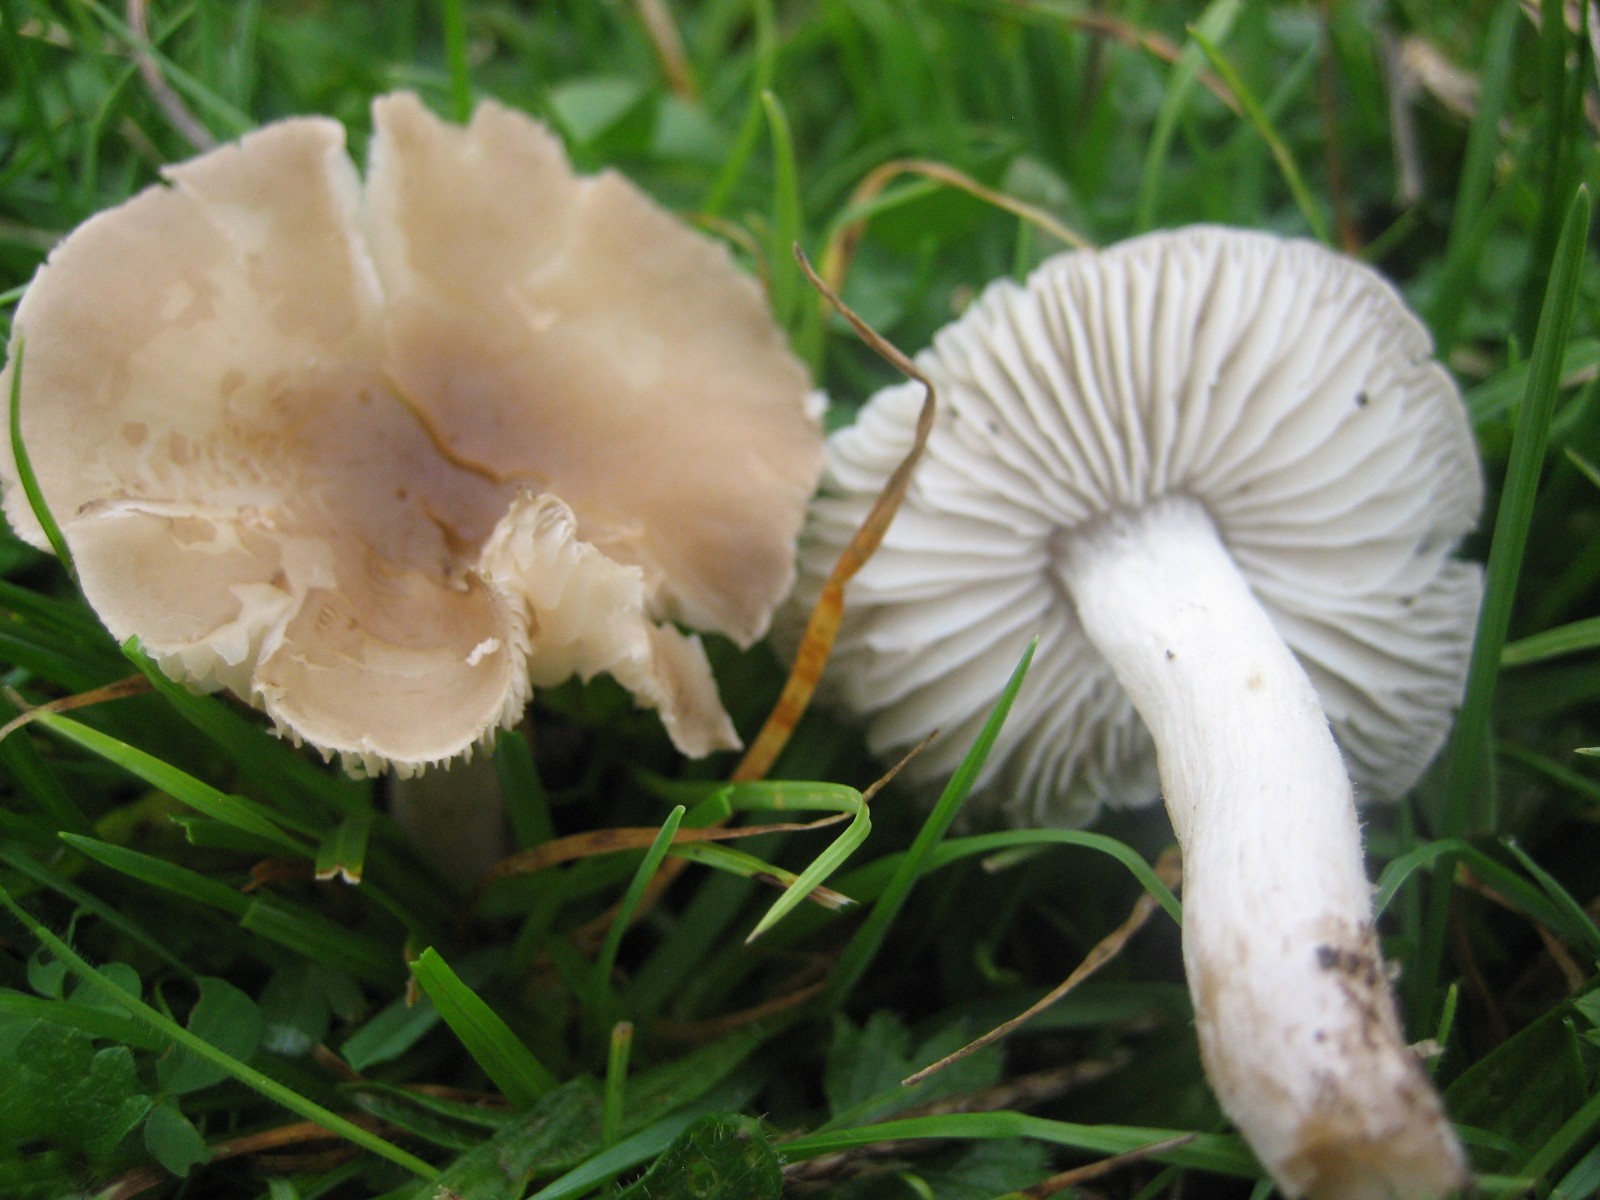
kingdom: Fungi
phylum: Basidiomycota
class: Agaricomycetes
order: Agaricales
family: Tricholomataceae
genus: Dermoloma
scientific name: Dermoloma cuneifolium
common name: eng-nonnehat
